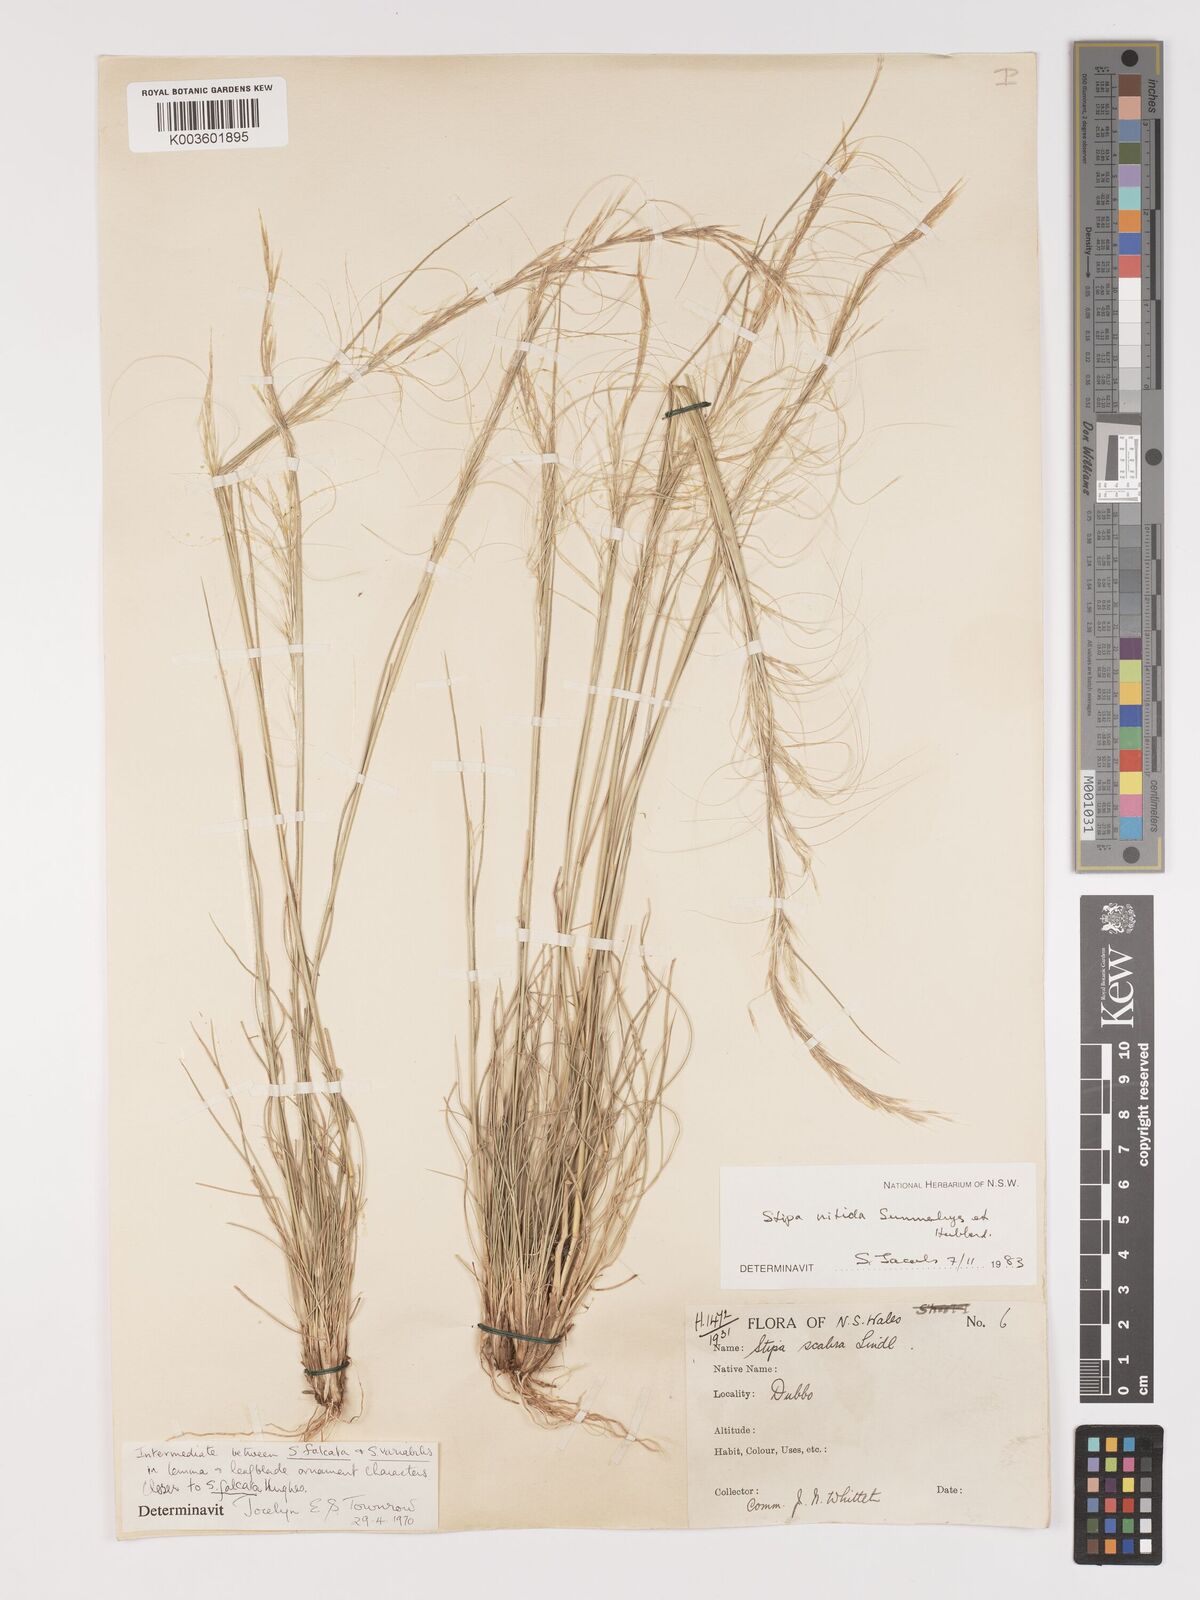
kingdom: Plantae
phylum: Tracheophyta
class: Liliopsida
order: Poales
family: Poaceae
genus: Austrostipa
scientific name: Austrostipa nitida
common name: Balcarra grass
